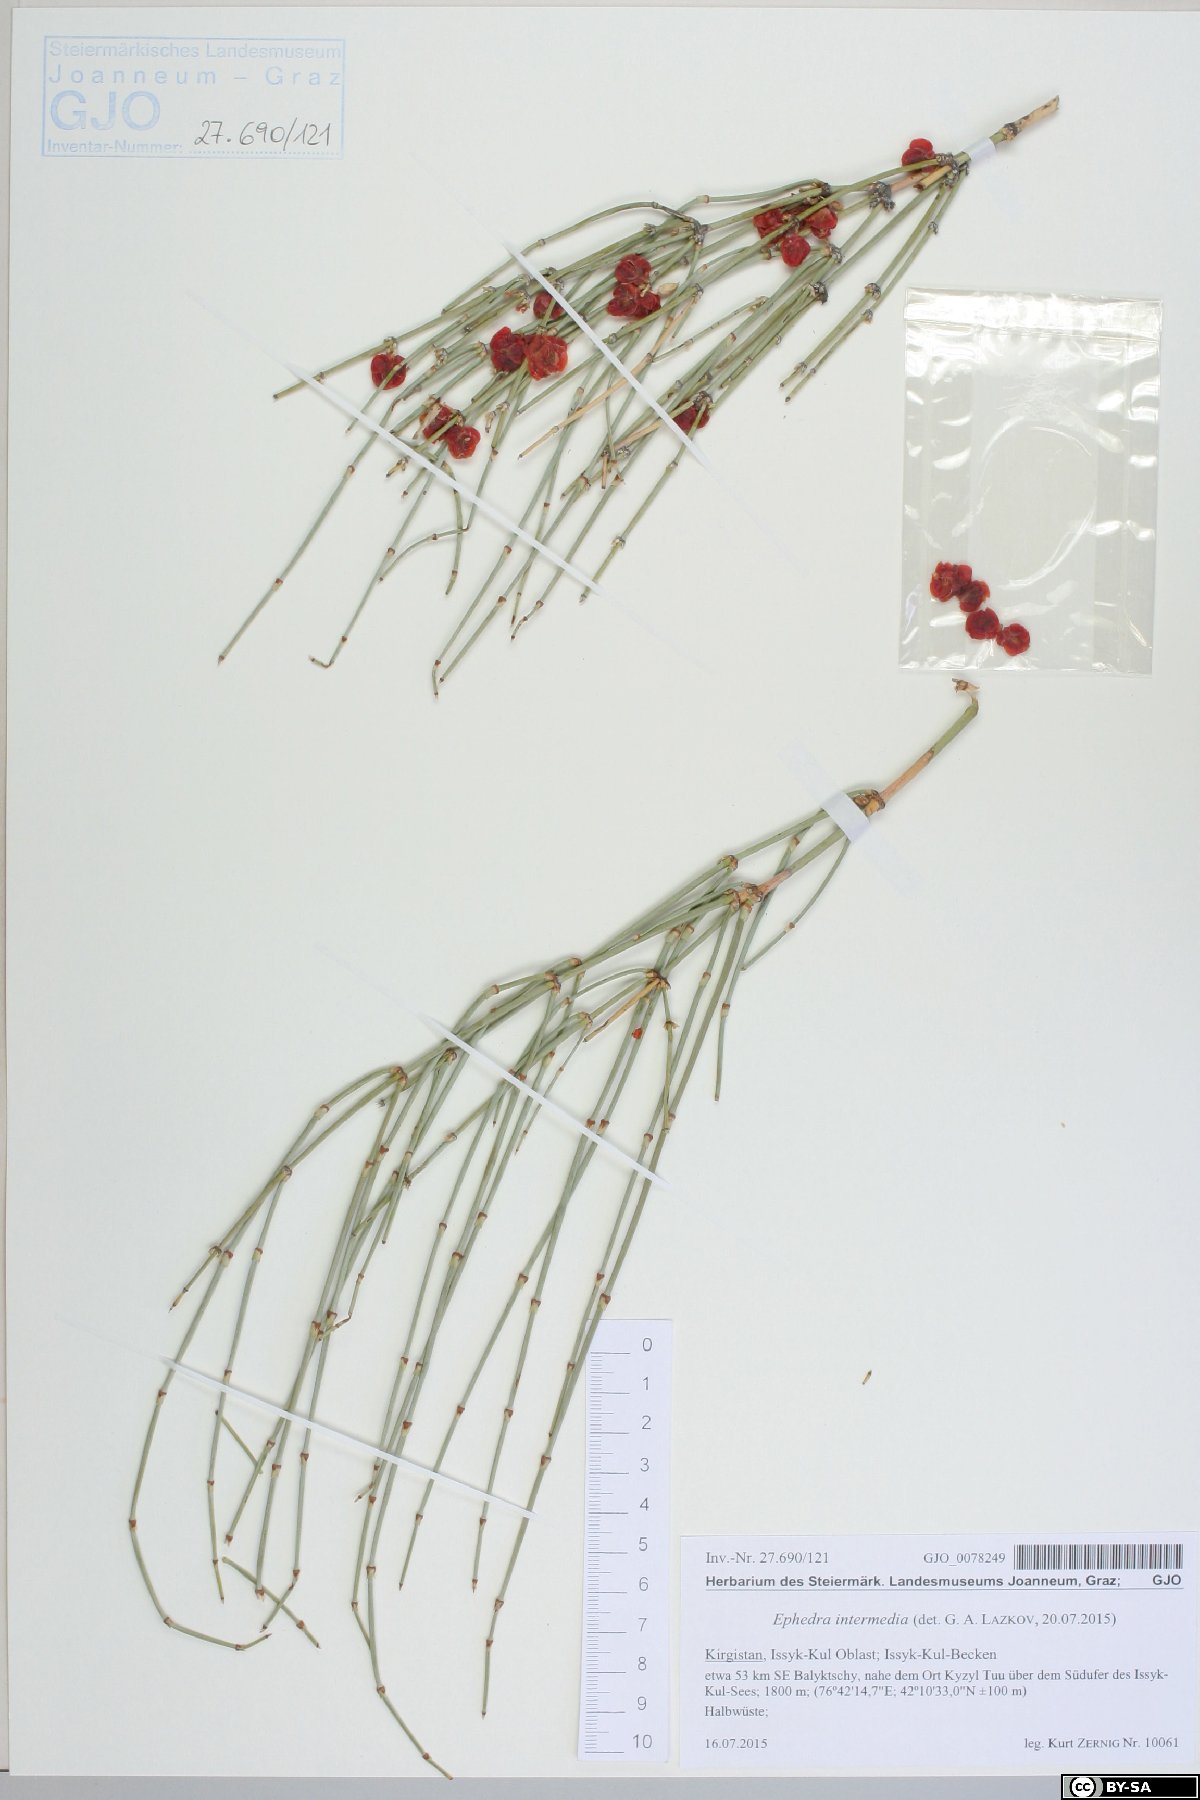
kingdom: Plantae
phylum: Tracheophyta
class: Gnetopsida
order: Ephedrales
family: Ephedraceae
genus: Ephedra
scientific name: Ephedra intermedia
